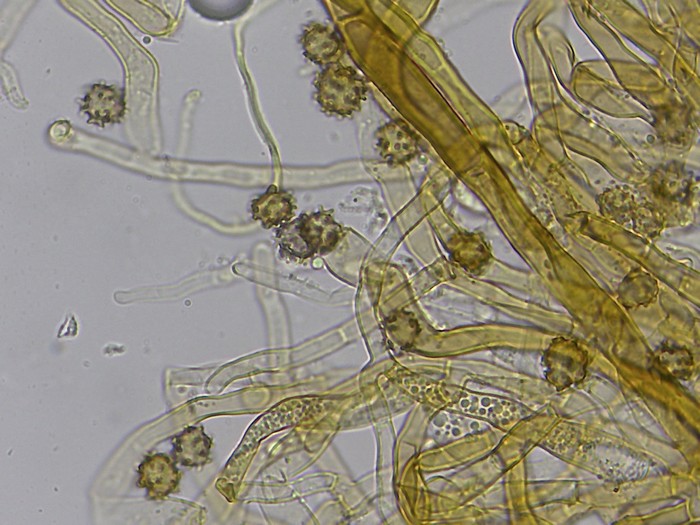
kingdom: Fungi
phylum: Basidiomycota
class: Agaricomycetes
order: Thelephorales
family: Thelephoraceae
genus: Odontia
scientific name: Odontia fibrosa
